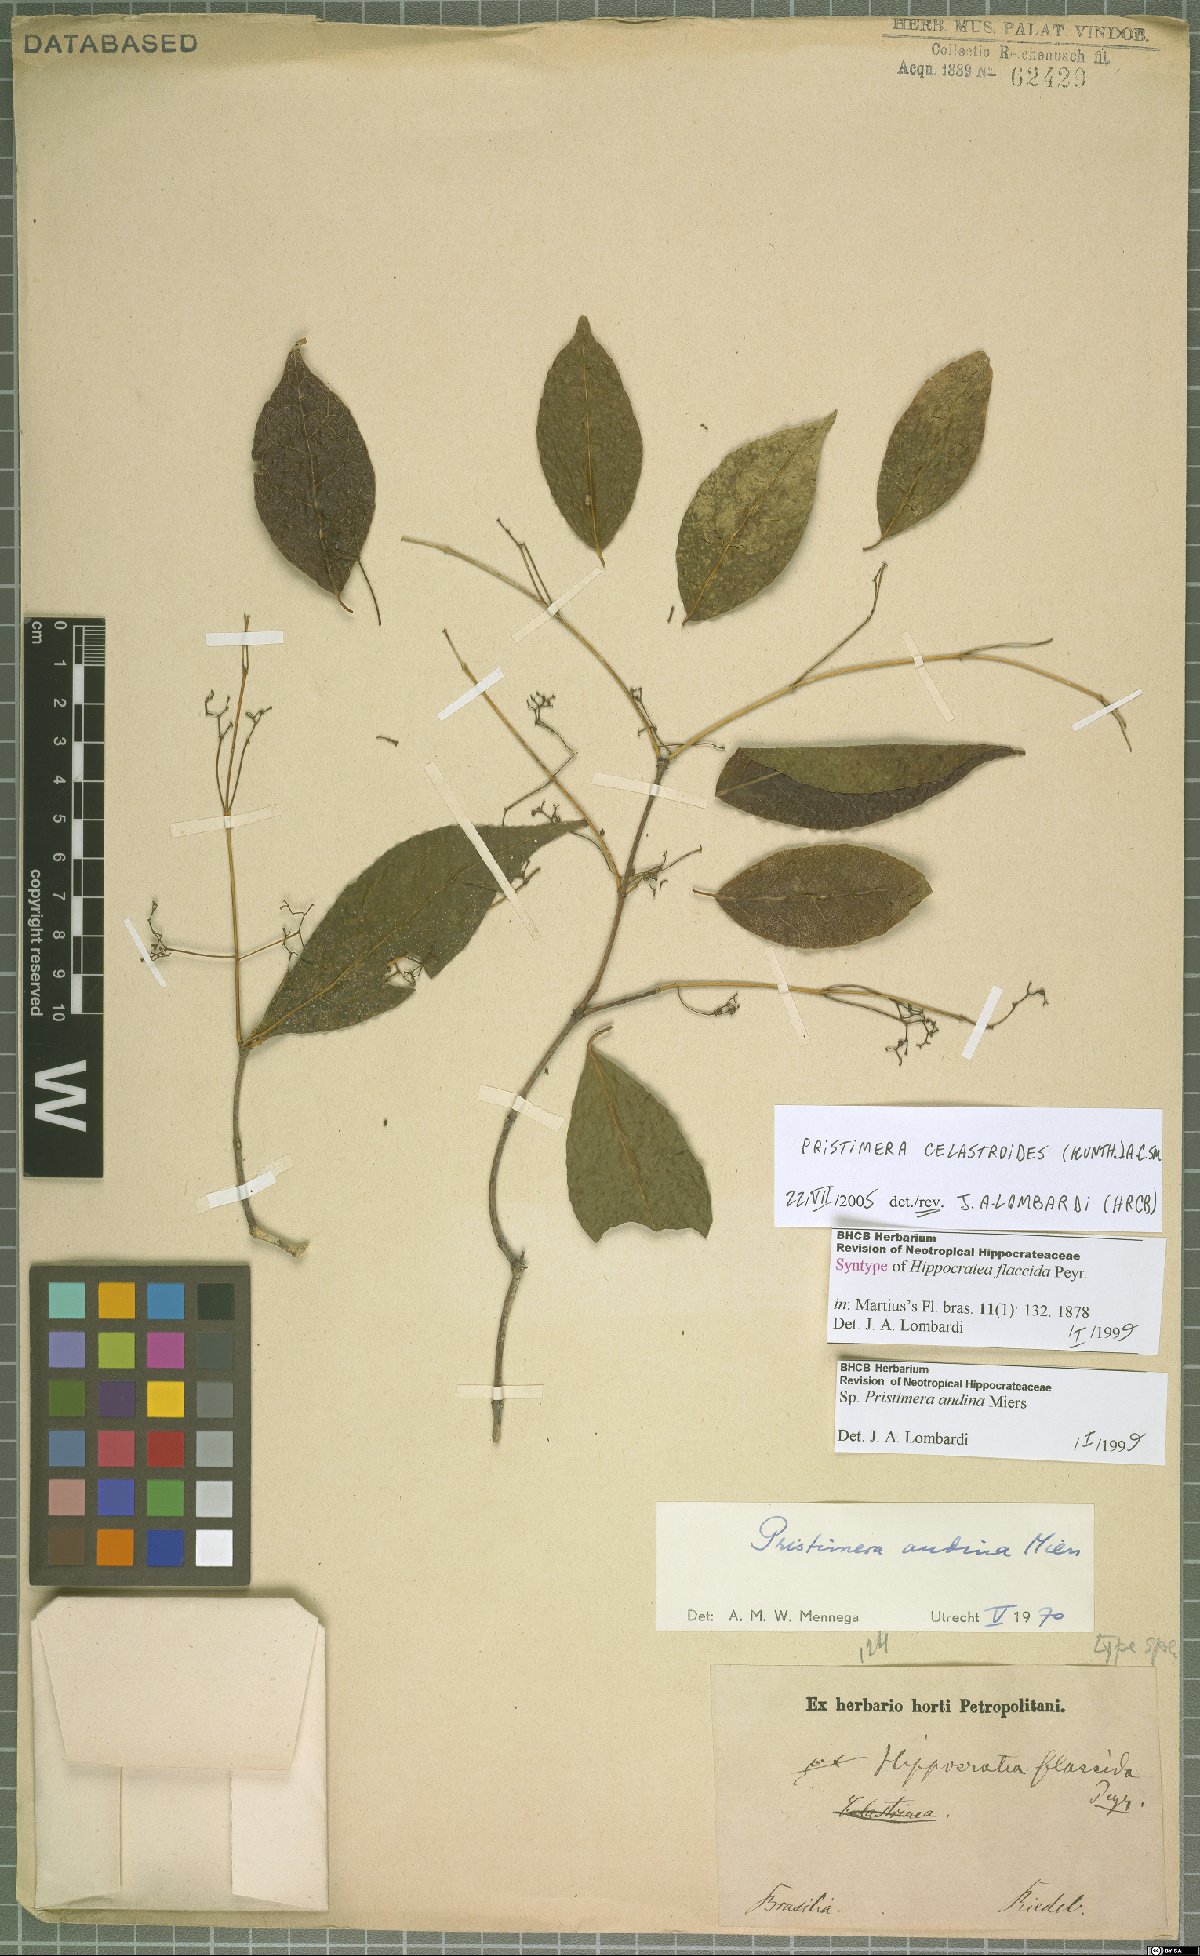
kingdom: Plantae
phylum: Tracheophyta
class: Magnoliopsida
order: Celastrales
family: Celastraceae
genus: Pristimera
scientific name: Pristimera celastroides
